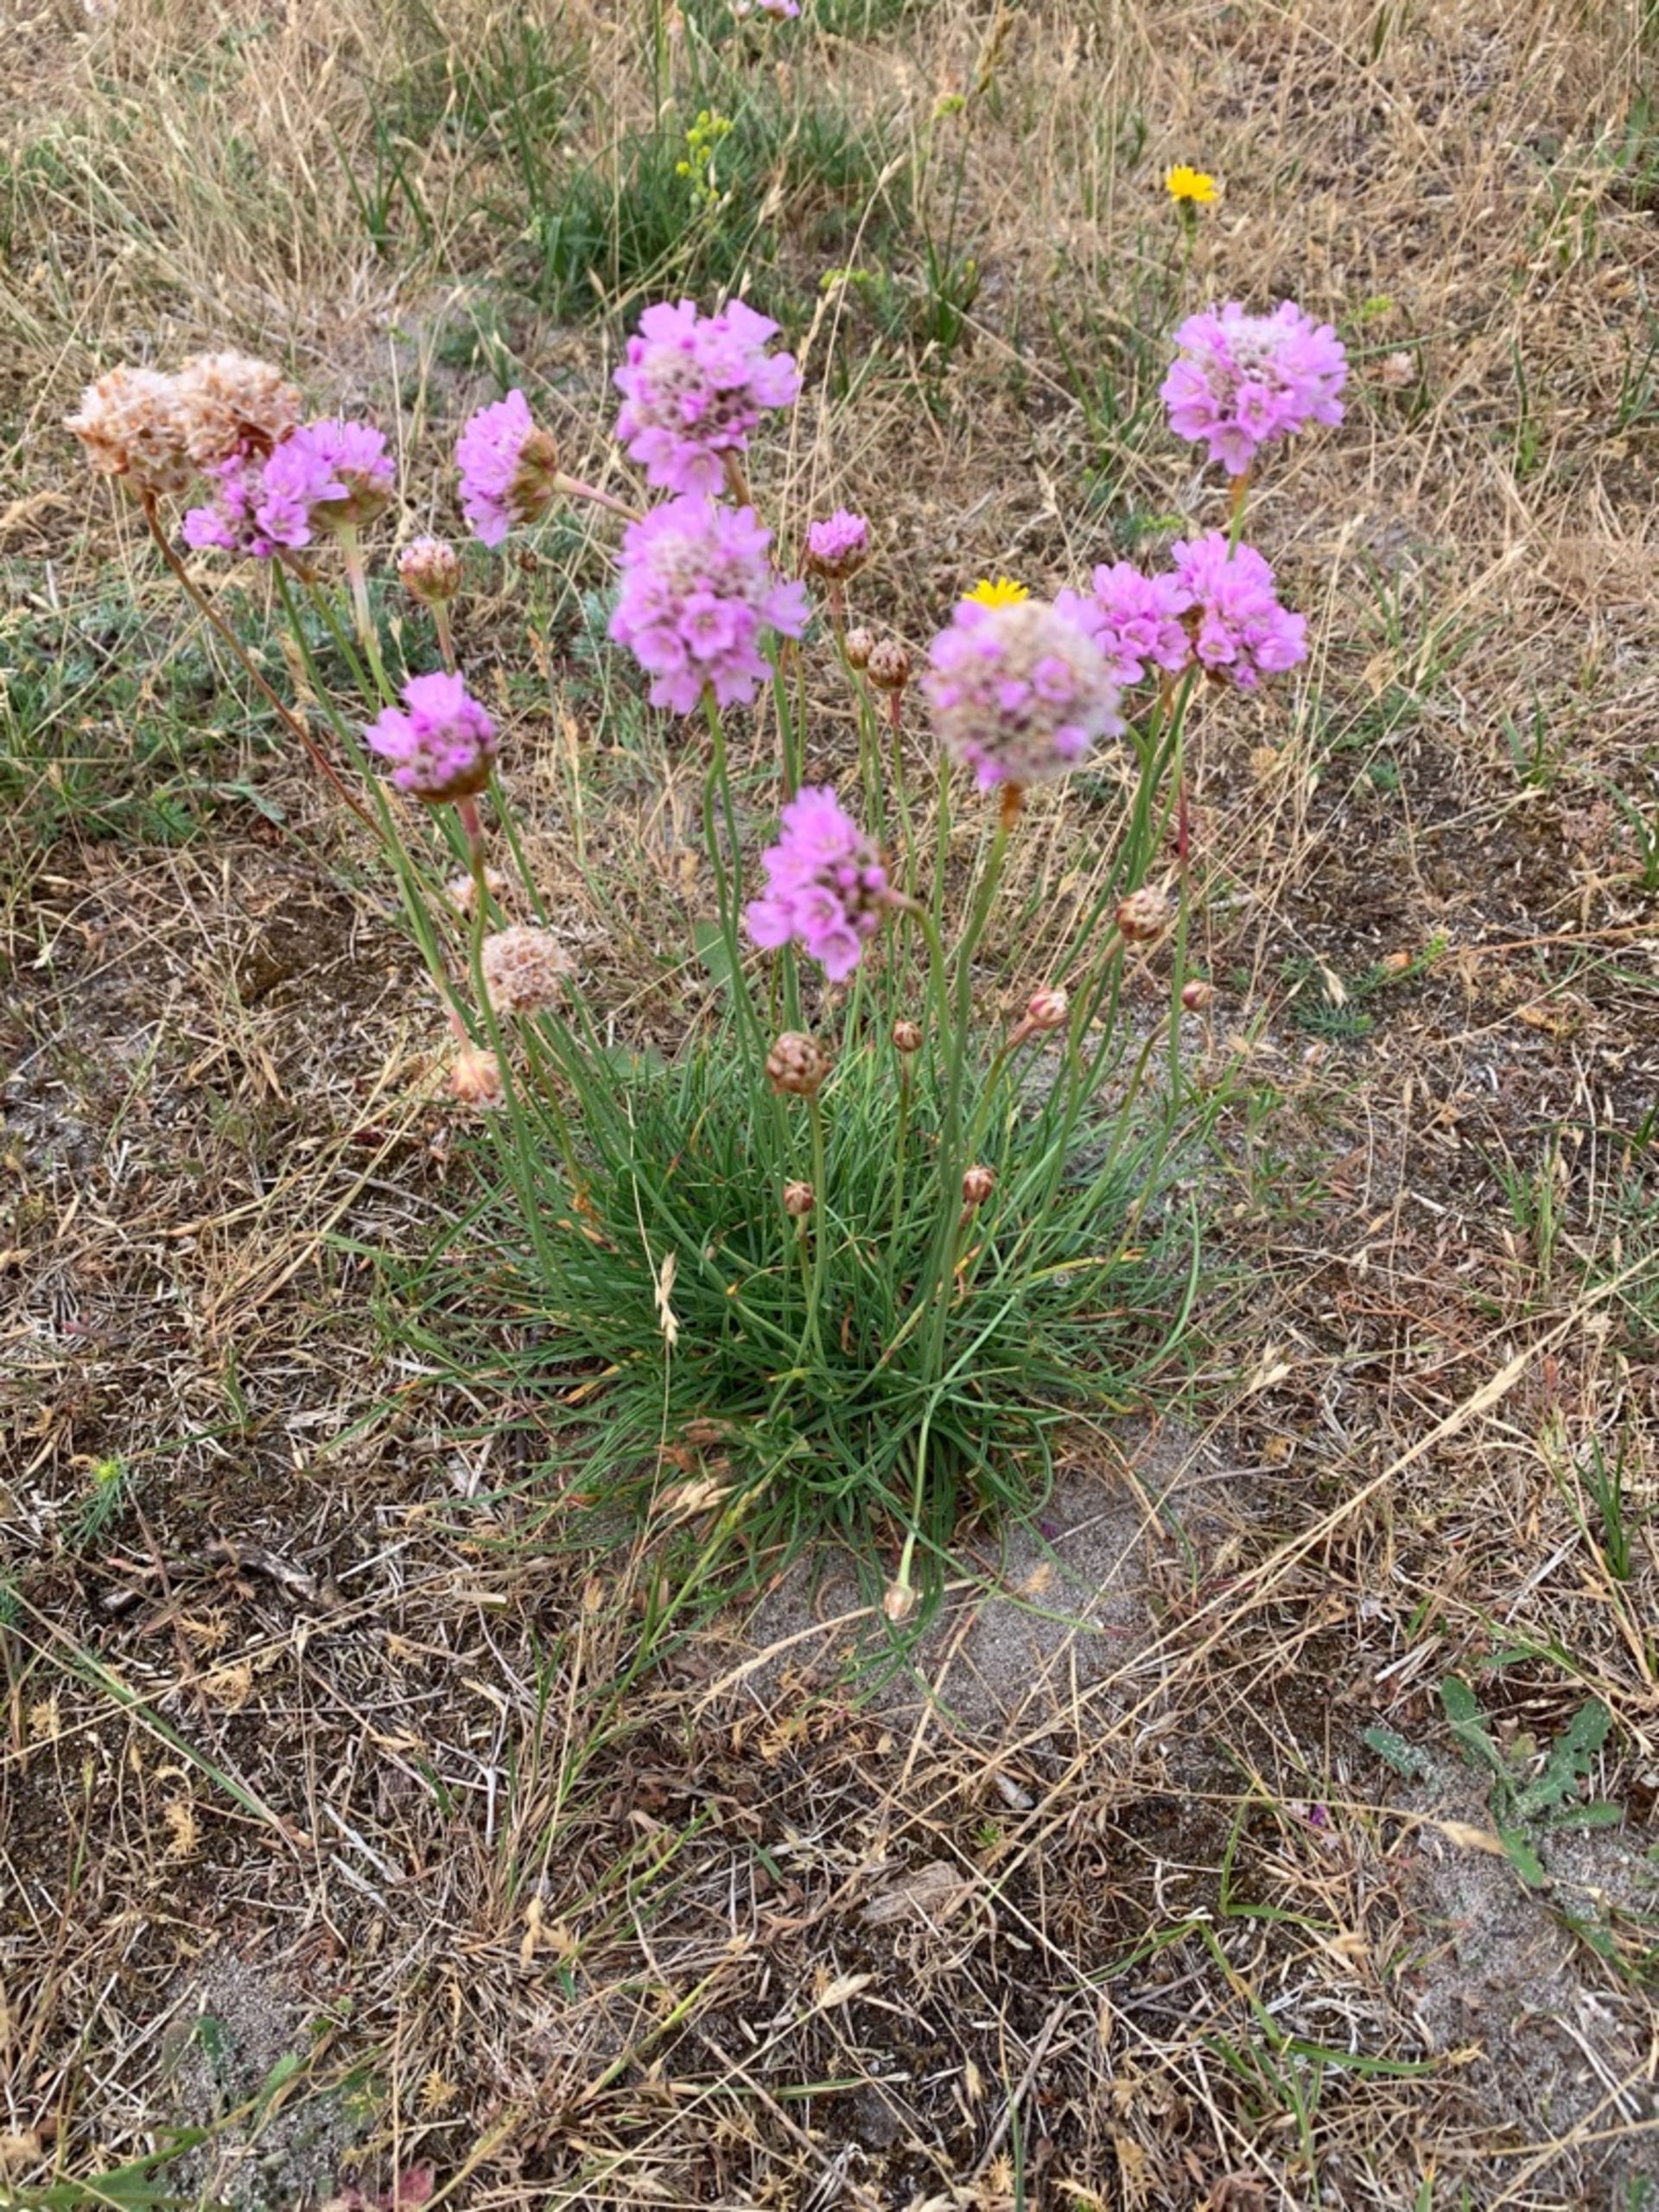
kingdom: Plantae
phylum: Tracheophyta
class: Magnoliopsida
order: Caryophyllales
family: Plumbaginaceae
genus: Armeria
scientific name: Armeria maritima
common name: Engelskgræs
